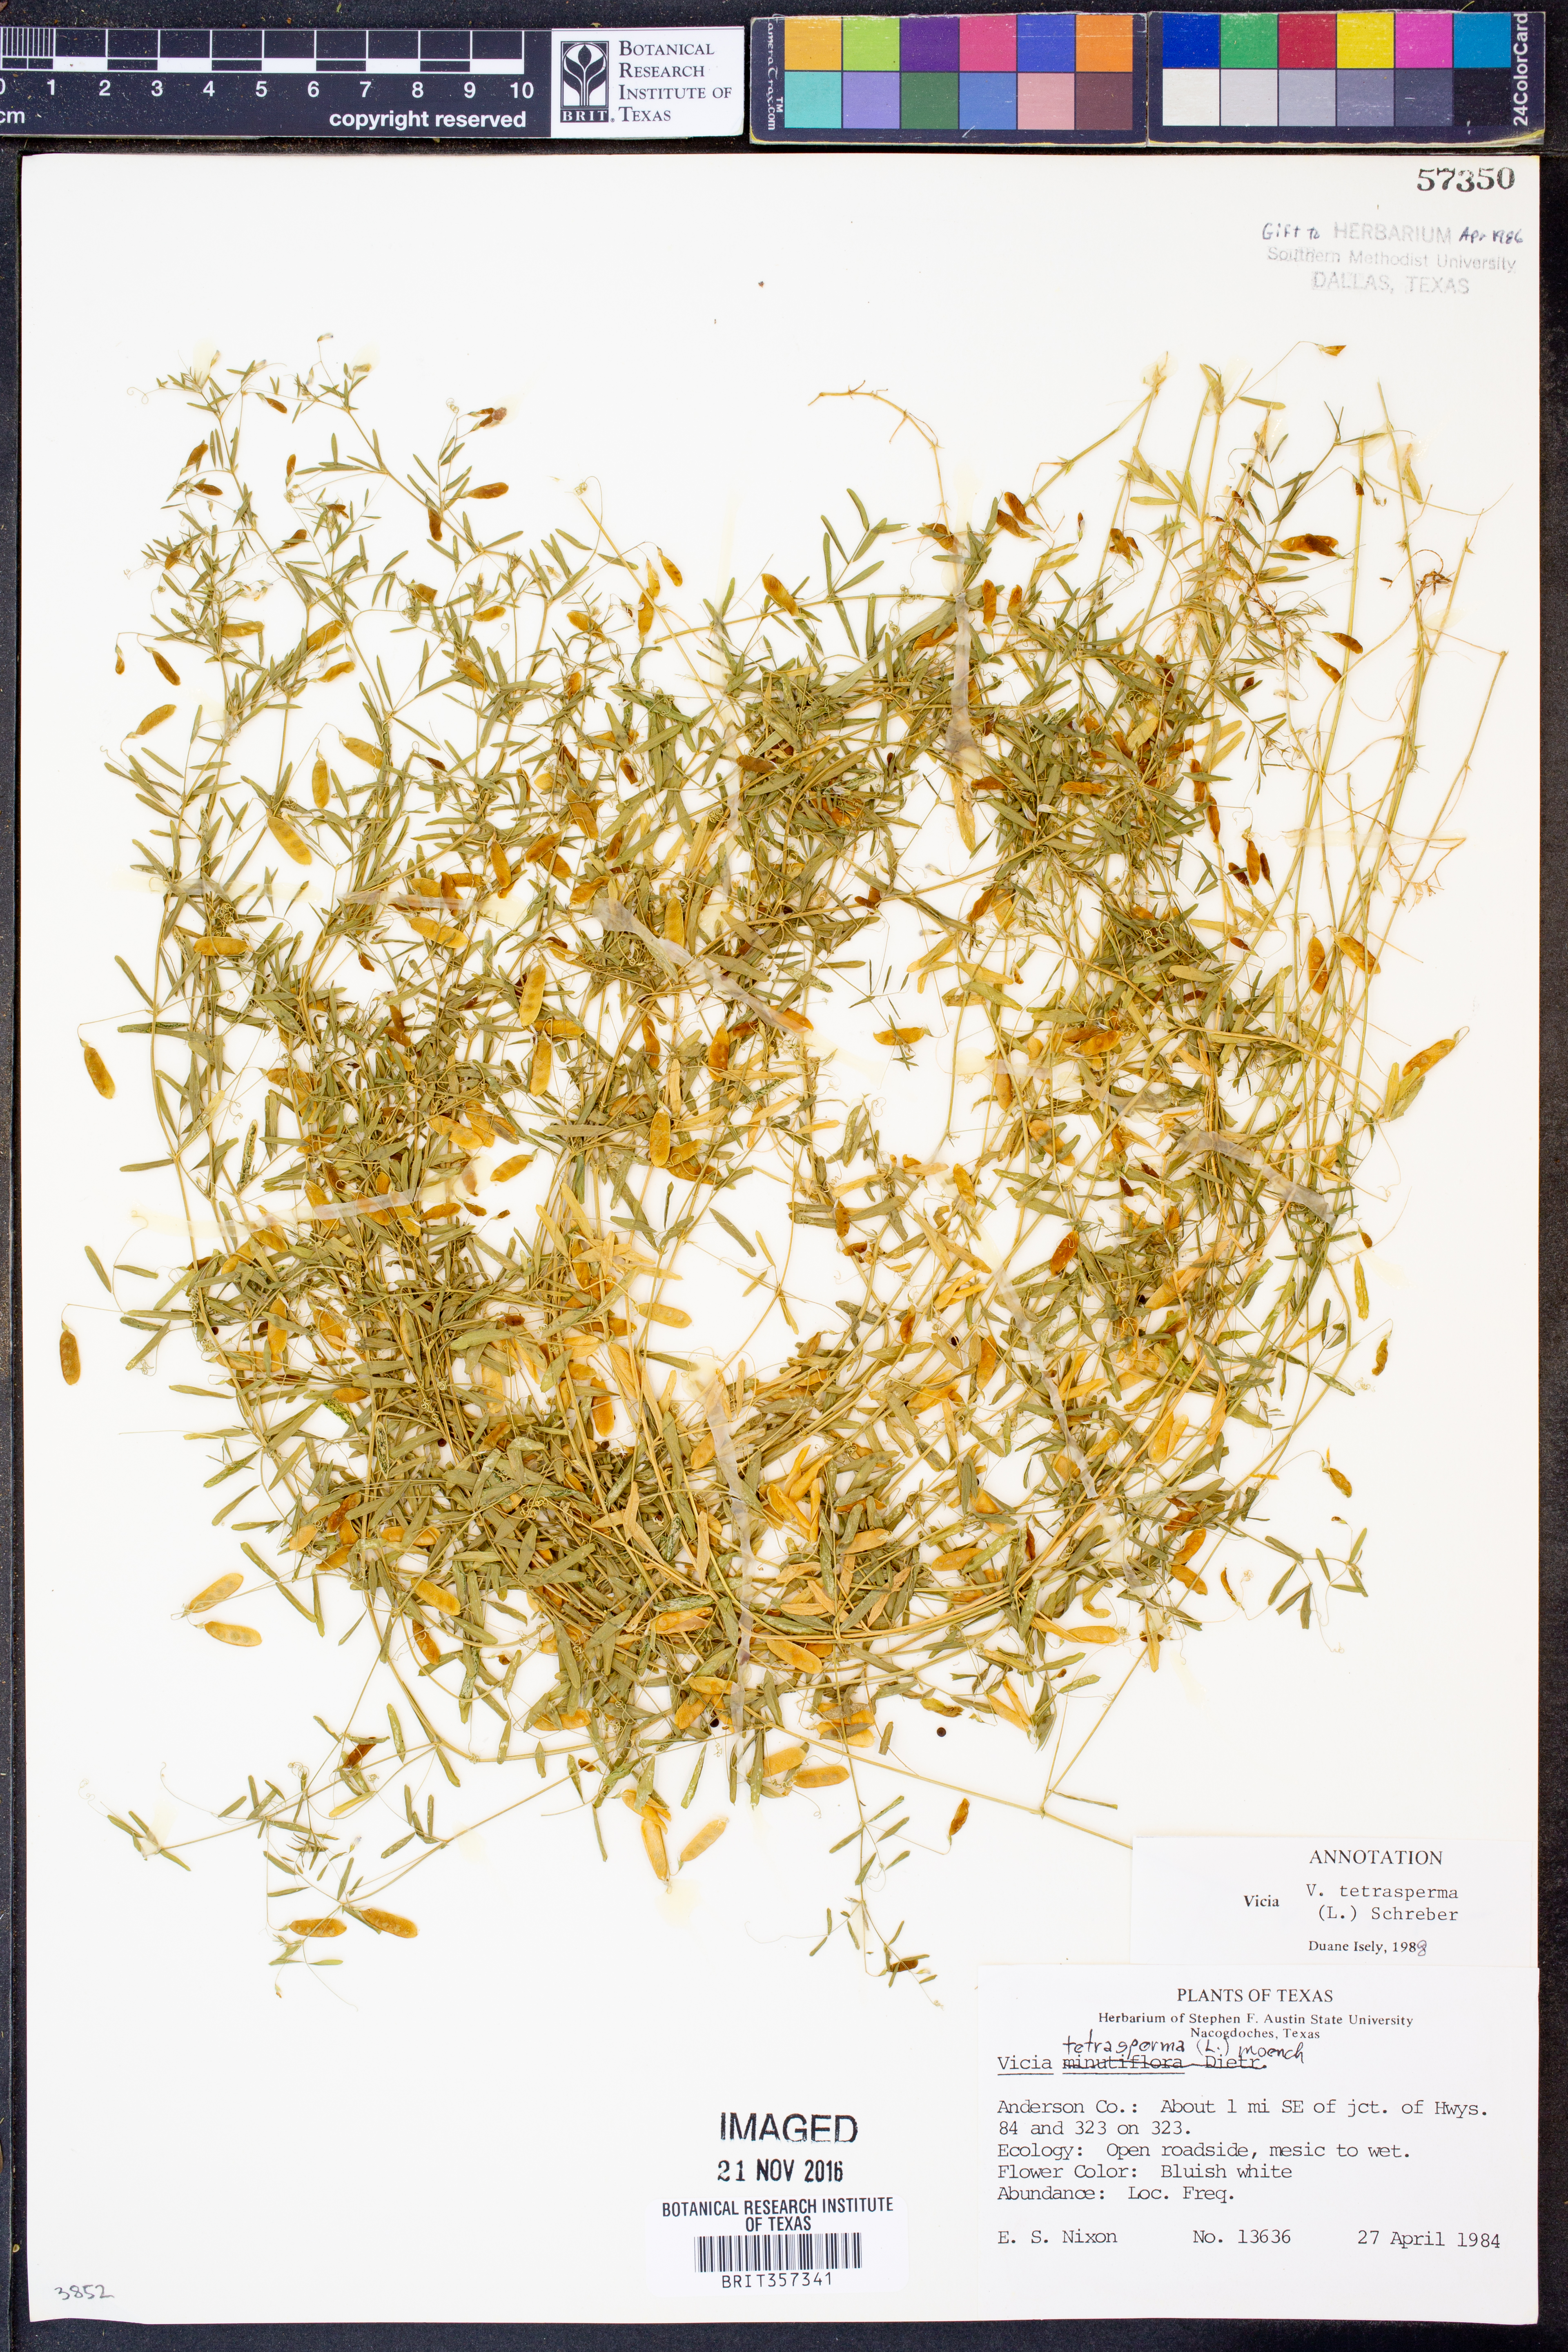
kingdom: Plantae
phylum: Tracheophyta
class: Magnoliopsida
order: Fabales
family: Fabaceae
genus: Vicia
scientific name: Vicia tetrasperma
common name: Smooth tare
